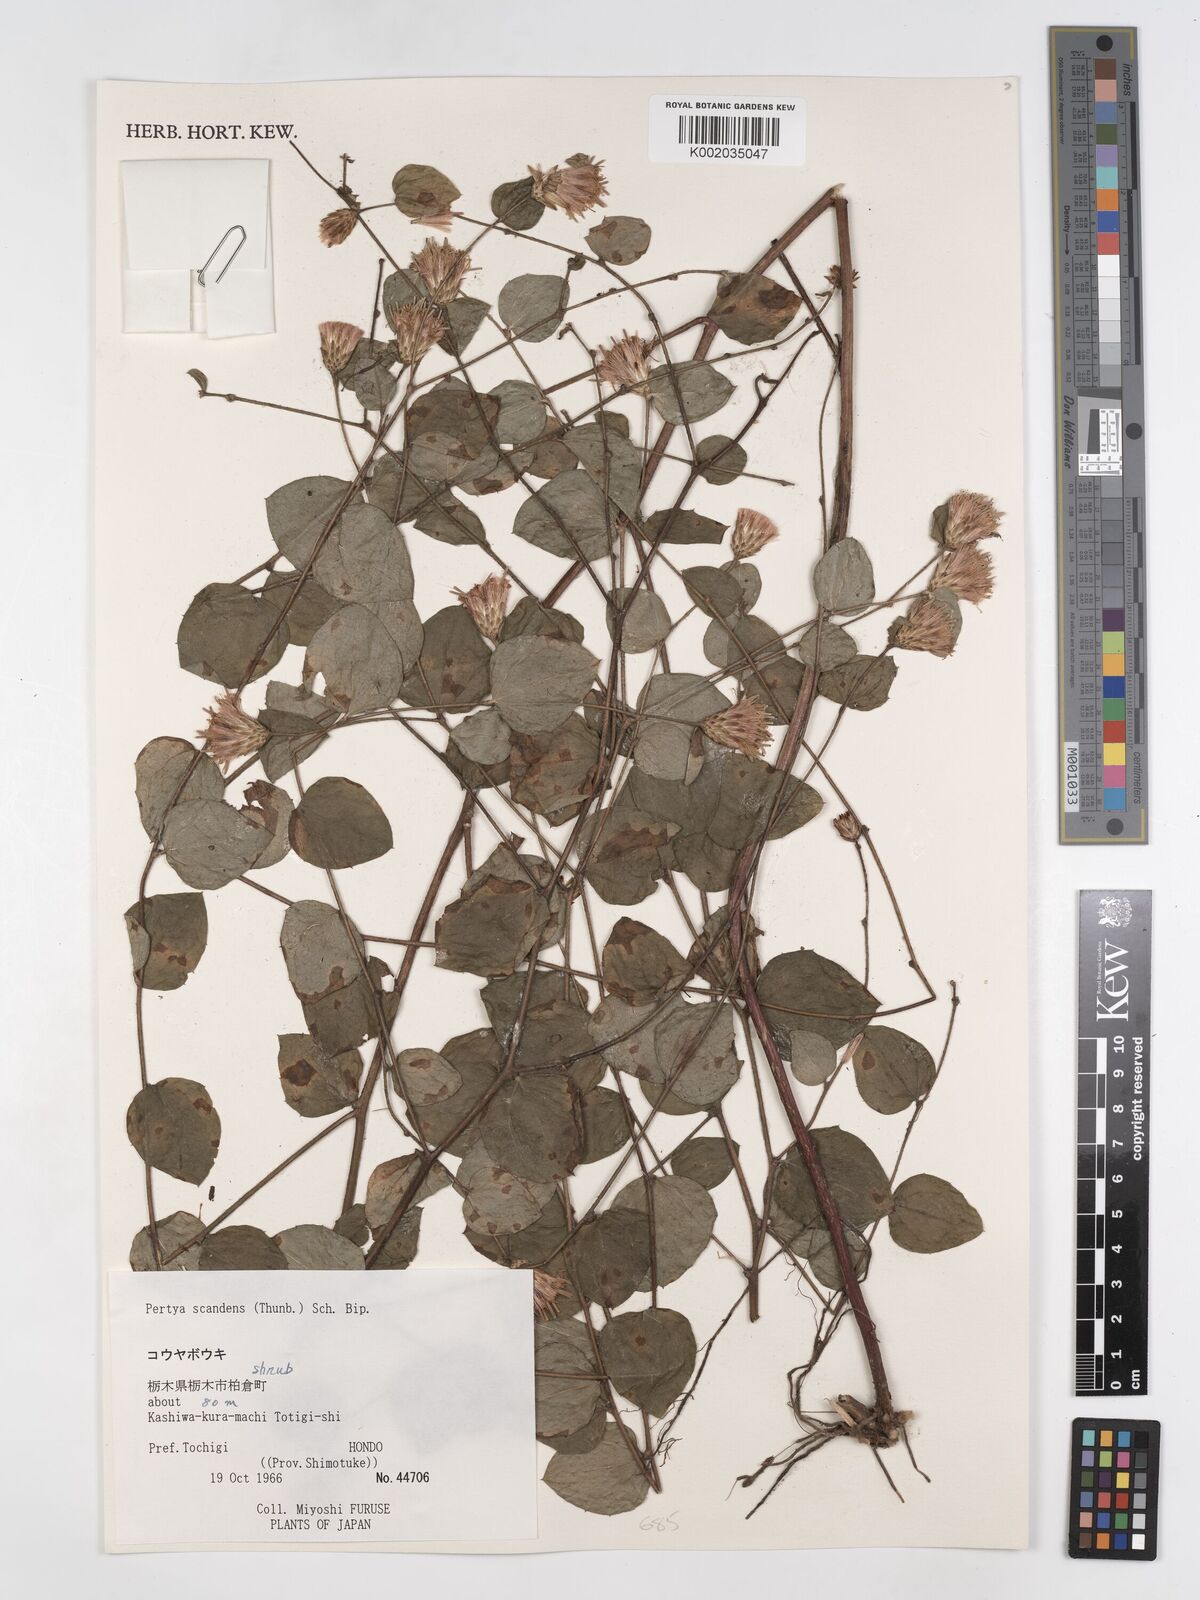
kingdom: Plantae
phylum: Tracheophyta
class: Magnoliopsida
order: Asterales
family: Asteraceae
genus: Pertya
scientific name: Pertya scandens
